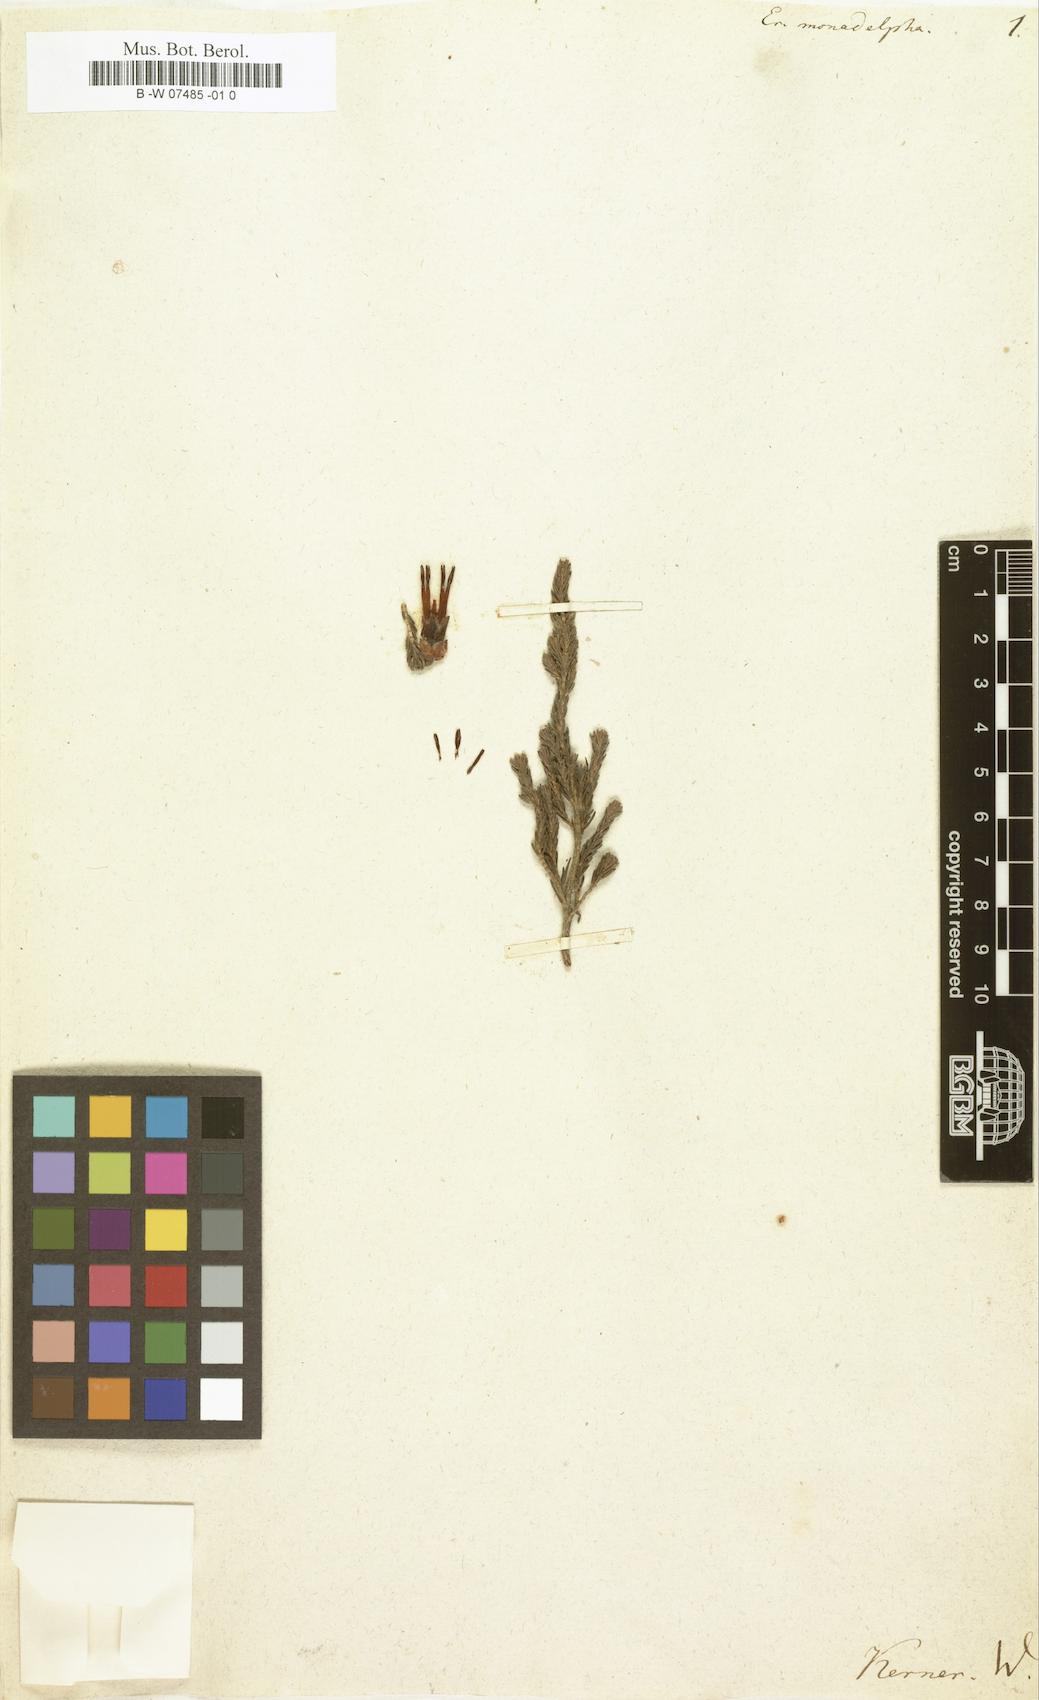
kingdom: Plantae
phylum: Tracheophyta
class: Magnoliopsida
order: Ericales
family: Ericaceae
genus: Erica
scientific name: Erica monadelphia
